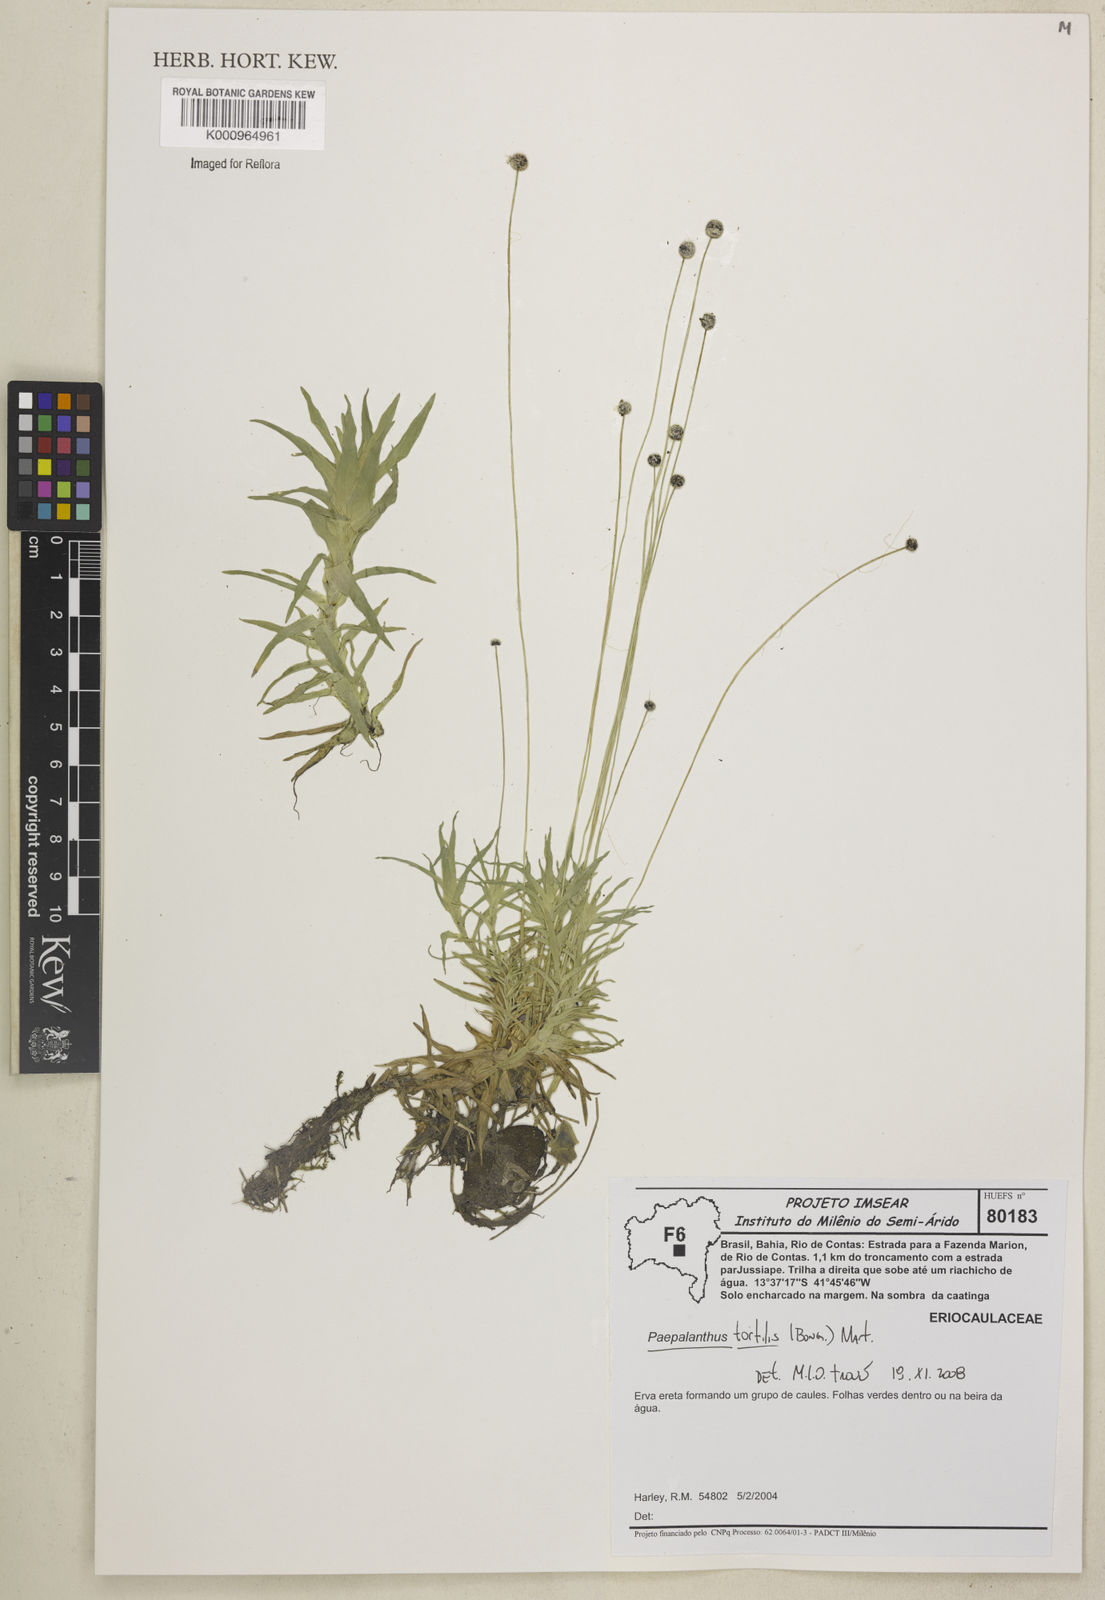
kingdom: Plantae
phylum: Tracheophyta
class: Liliopsida
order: Poales
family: Eriocaulaceae
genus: Paepalanthus
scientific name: Paepalanthus
